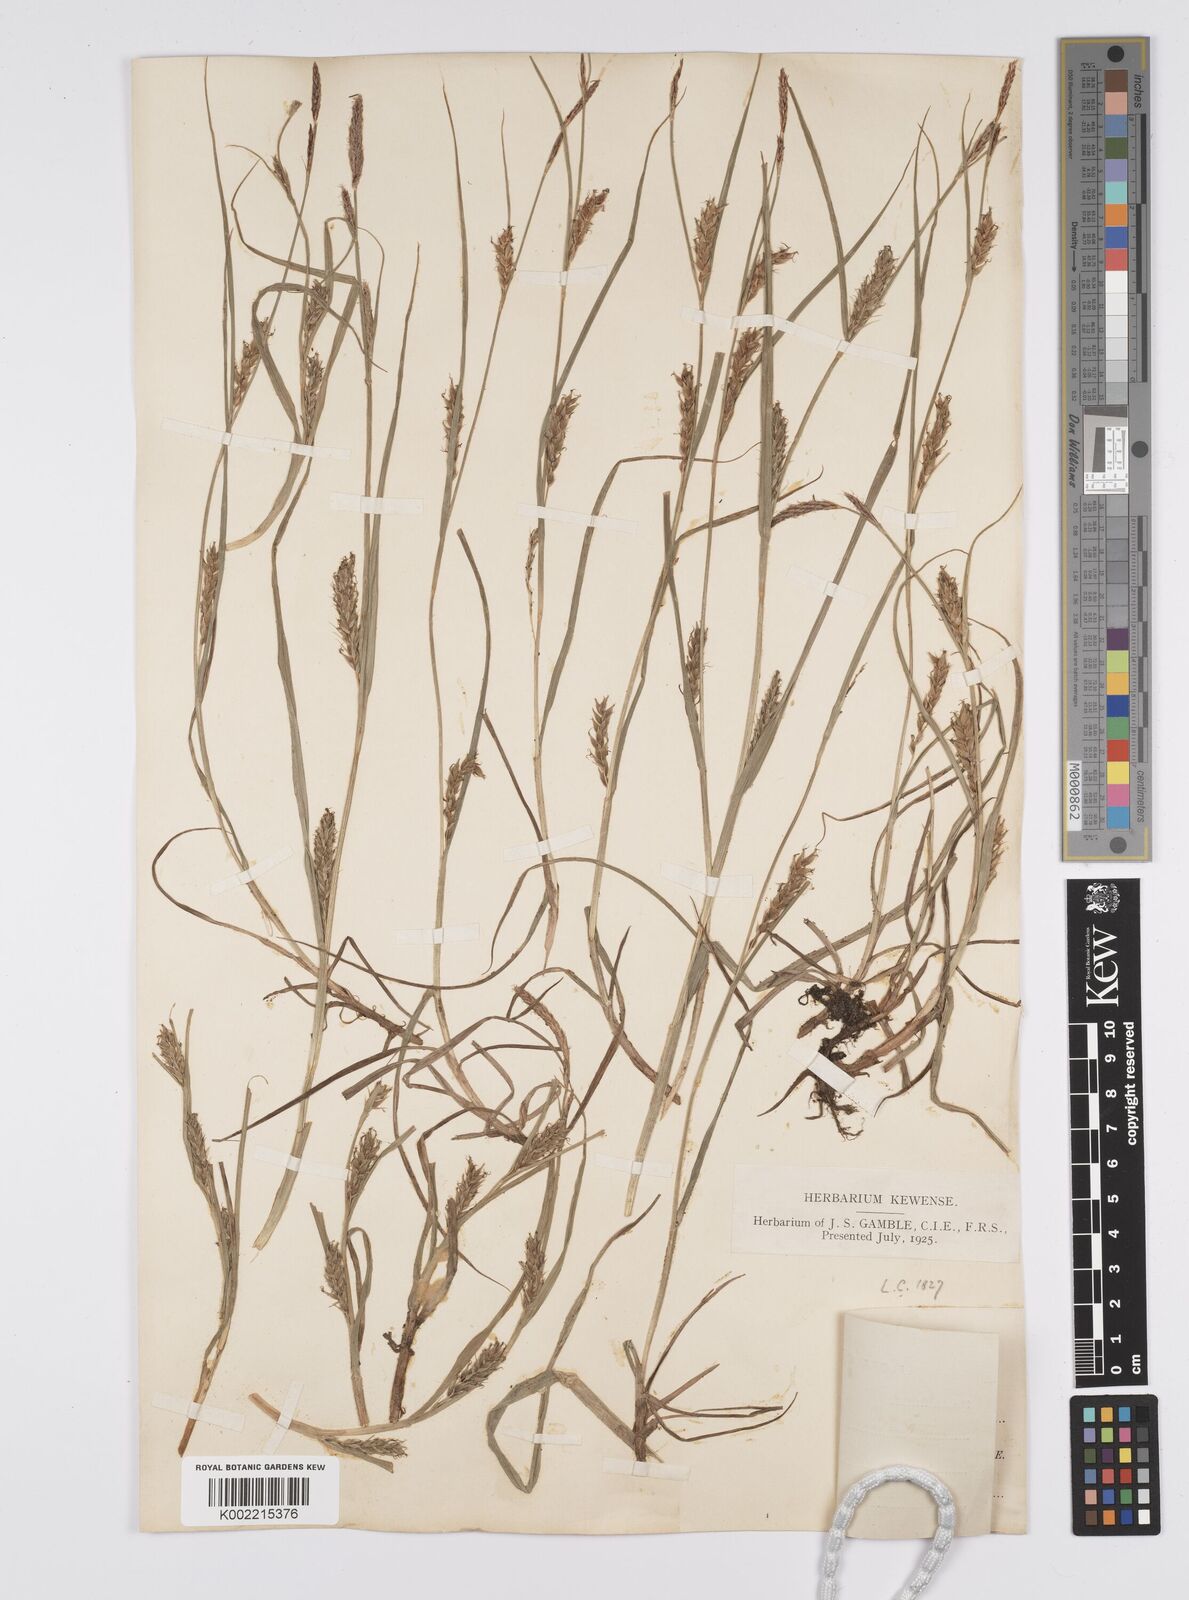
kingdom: Plantae
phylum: Tracheophyta
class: Liliopsida
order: Poales
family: Cyperaceae
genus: Carex
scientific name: Carex hirta
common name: Hairy sedge
